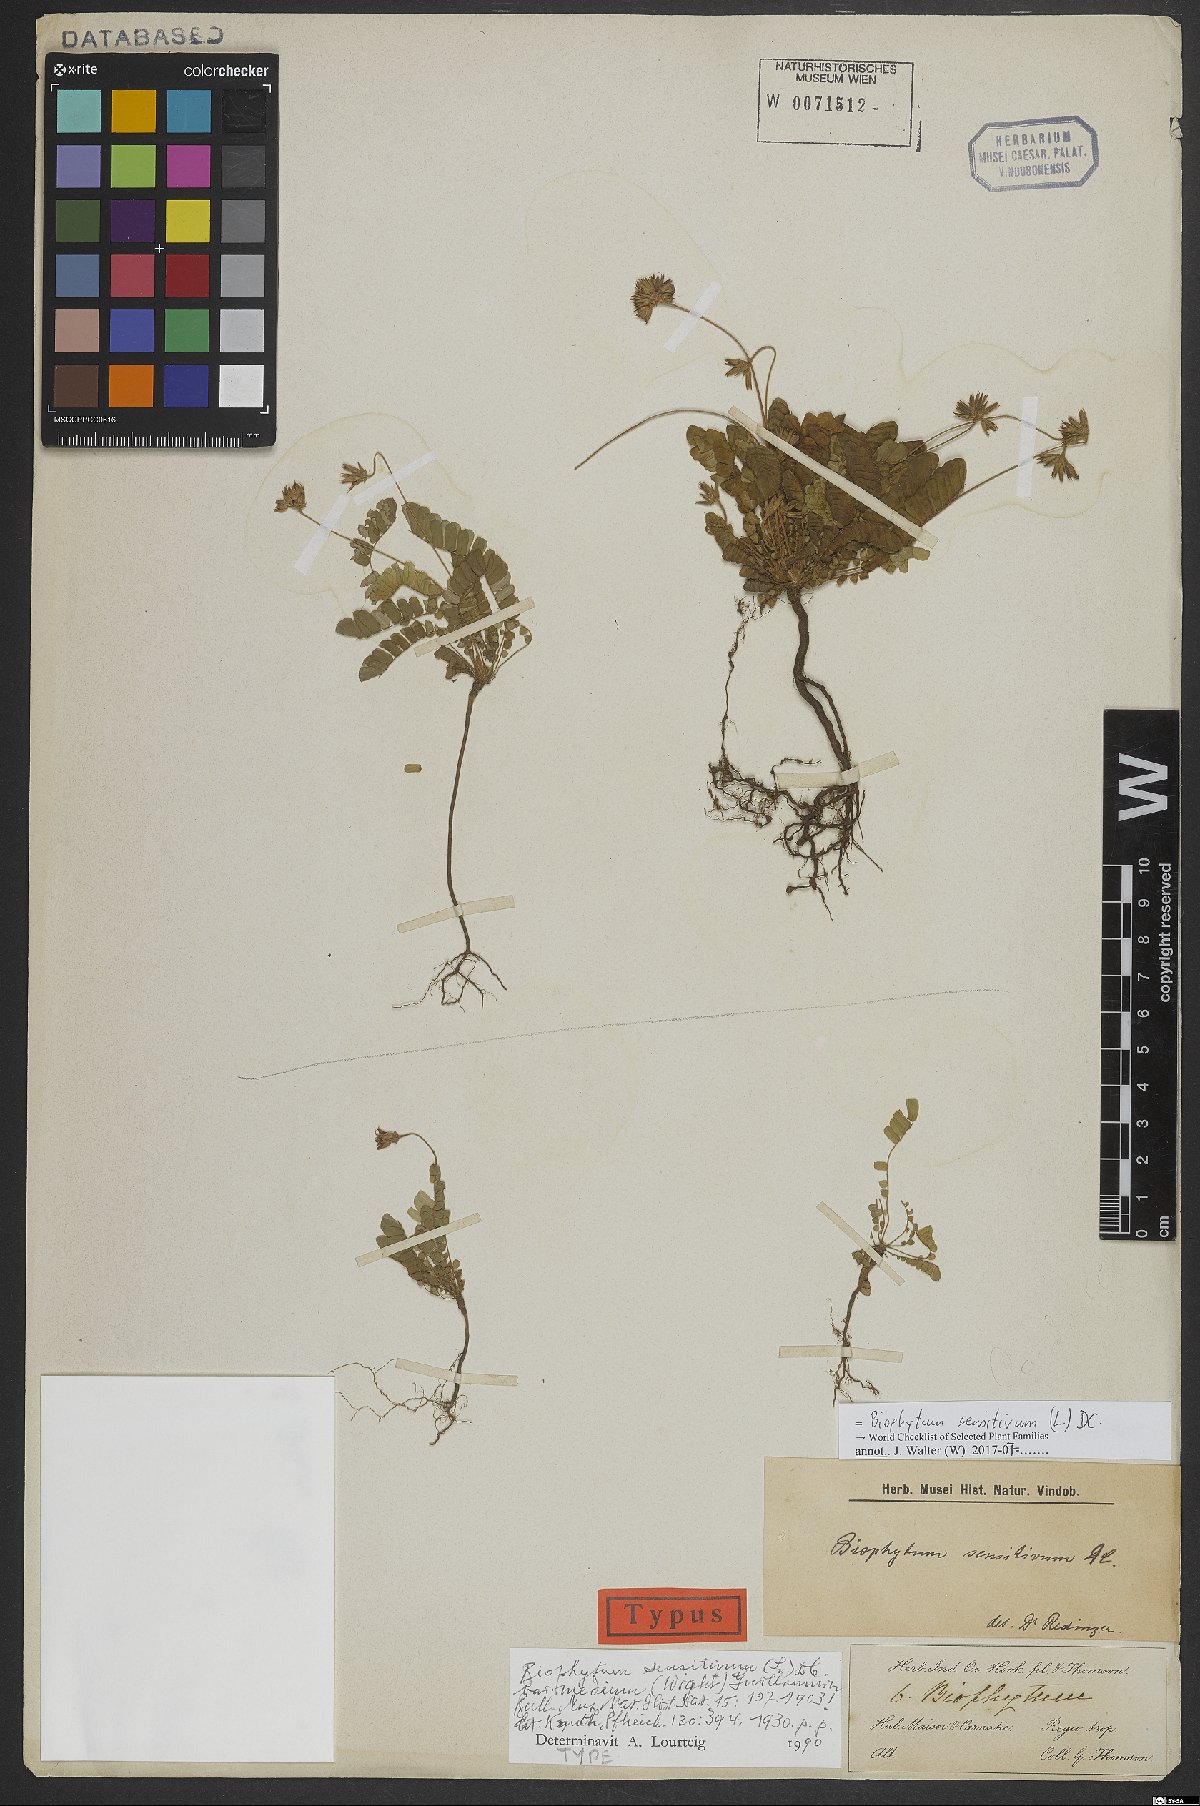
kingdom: Plantae
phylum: Tracheophyta
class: Magnoliopsida
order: Oxalidales
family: Oxalidaceae
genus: Biophytum
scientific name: Biophytum sensitivum
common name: Lifeplant
